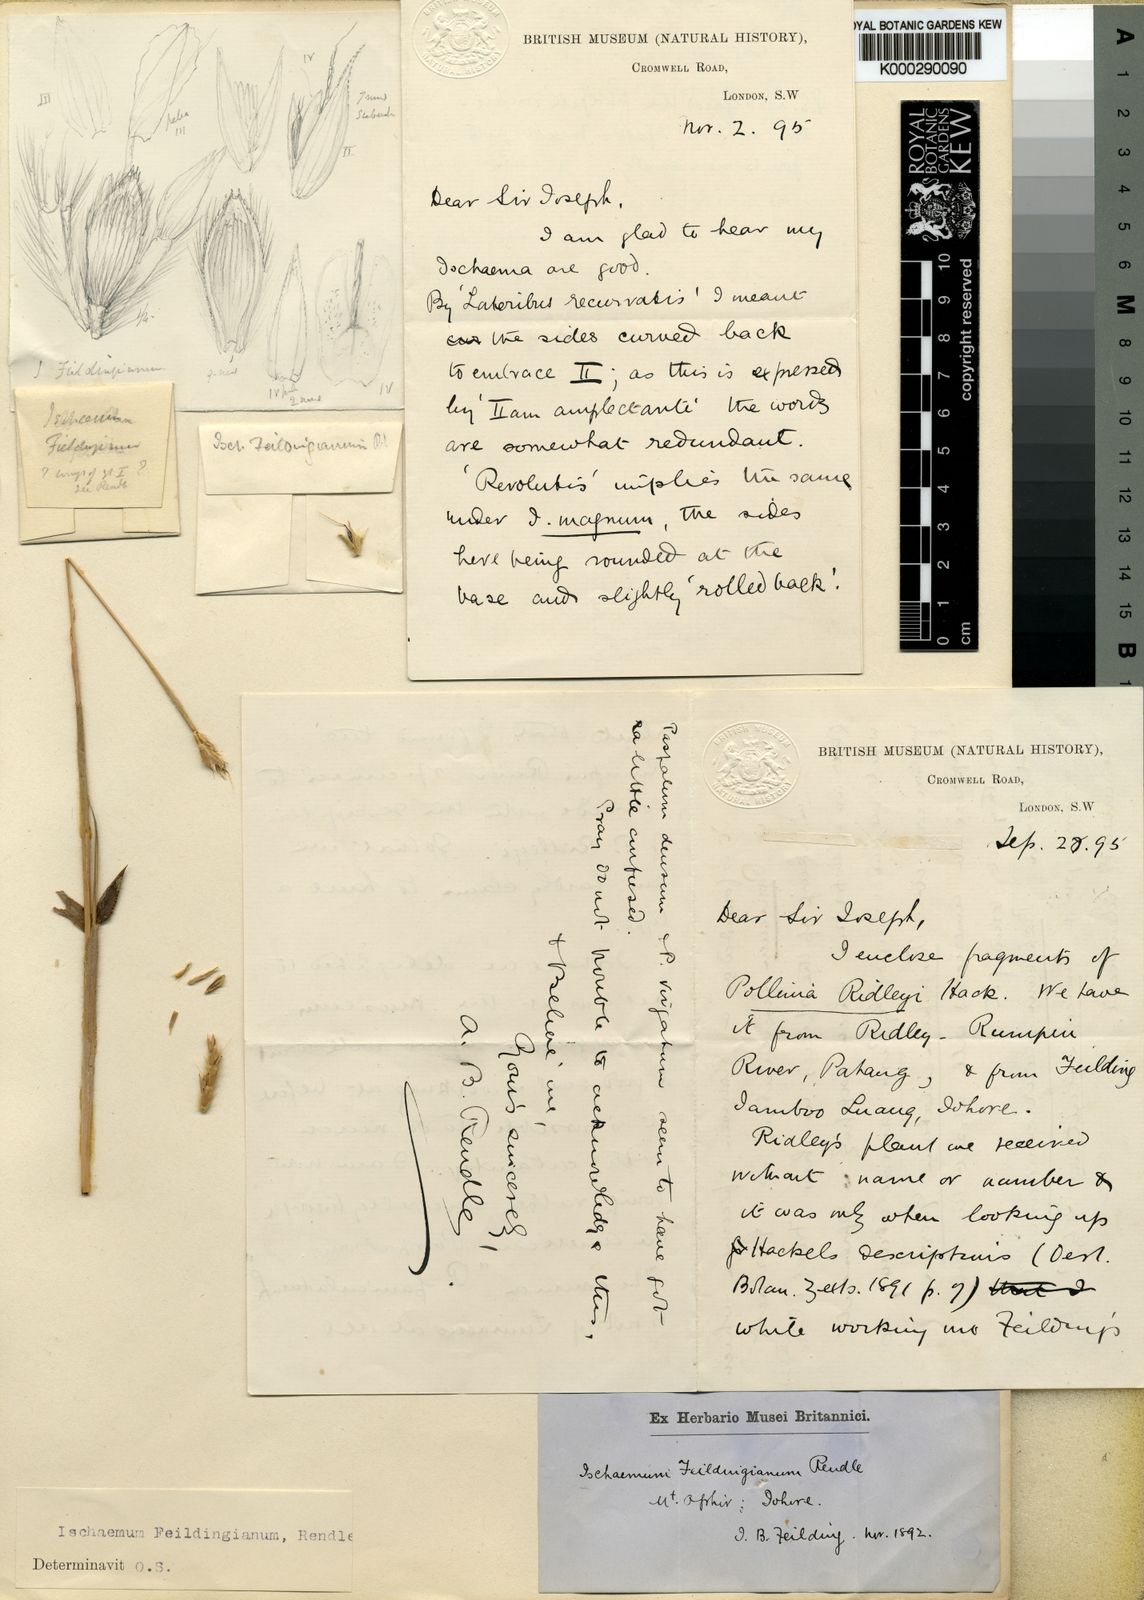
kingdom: Plantae
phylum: Tracheophyta
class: Liliopsida
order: Poales
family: Poaceae
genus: Ischaemum
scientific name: Ischaemum feildingianum
